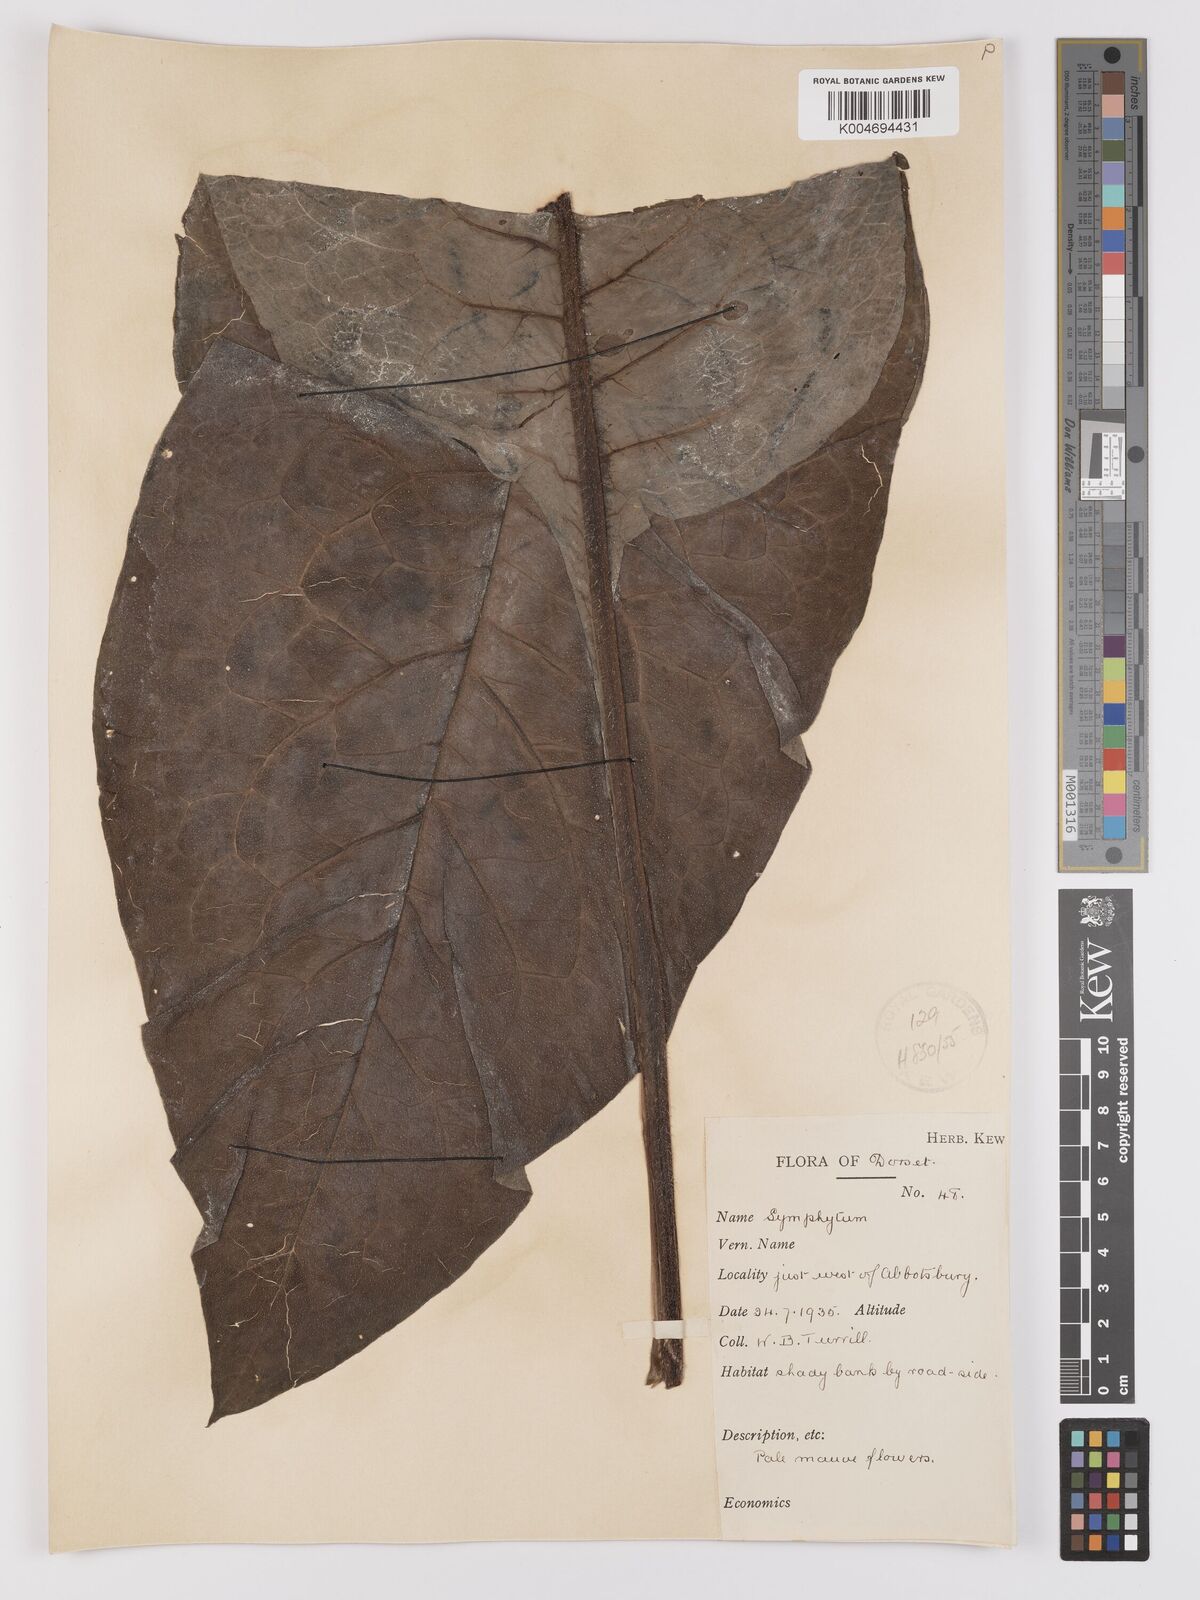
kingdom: Plantae
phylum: Tracheophyta
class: Magnoliopsida
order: Boraginales
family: Boraginaceae
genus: Symphytum
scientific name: Symphytum officinale
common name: Common comfrey
